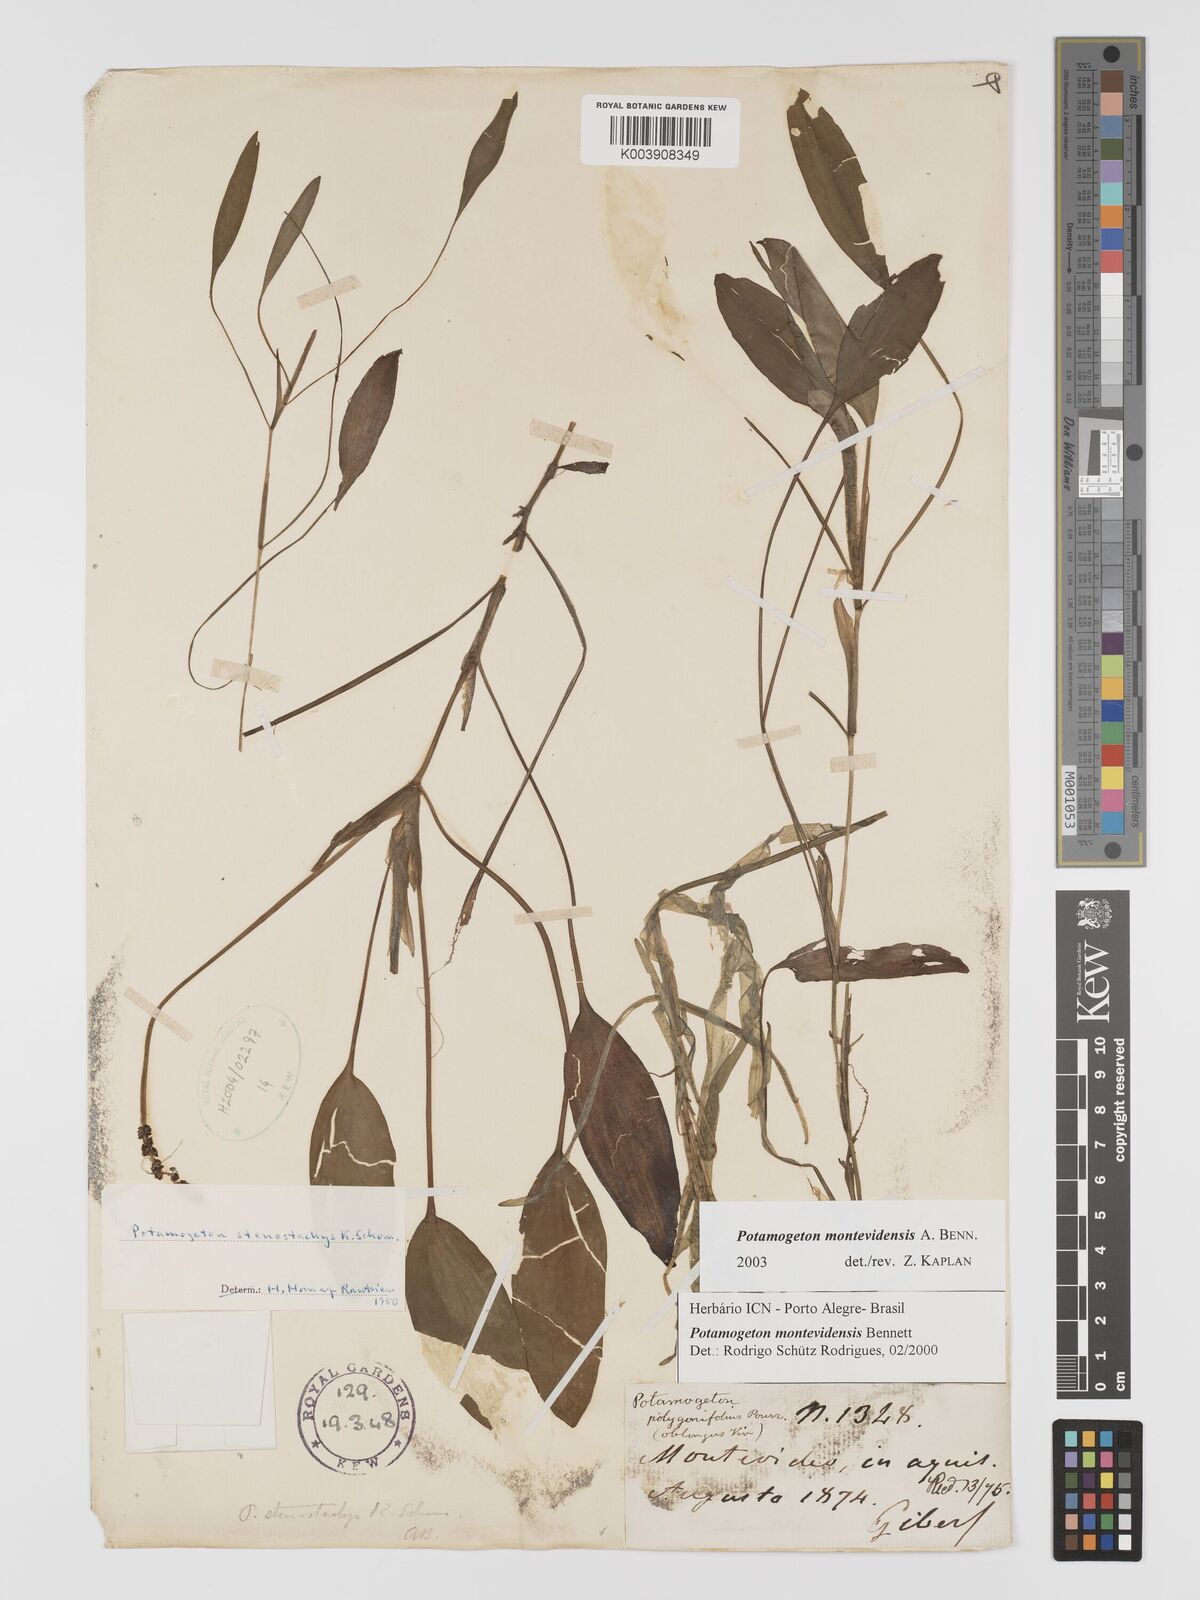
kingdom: Plantae
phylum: Tracheophyta
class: Liliopsida
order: Alismatales
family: Potamogetonaceae
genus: Potamogeton
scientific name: Potamogeton montevidensis
